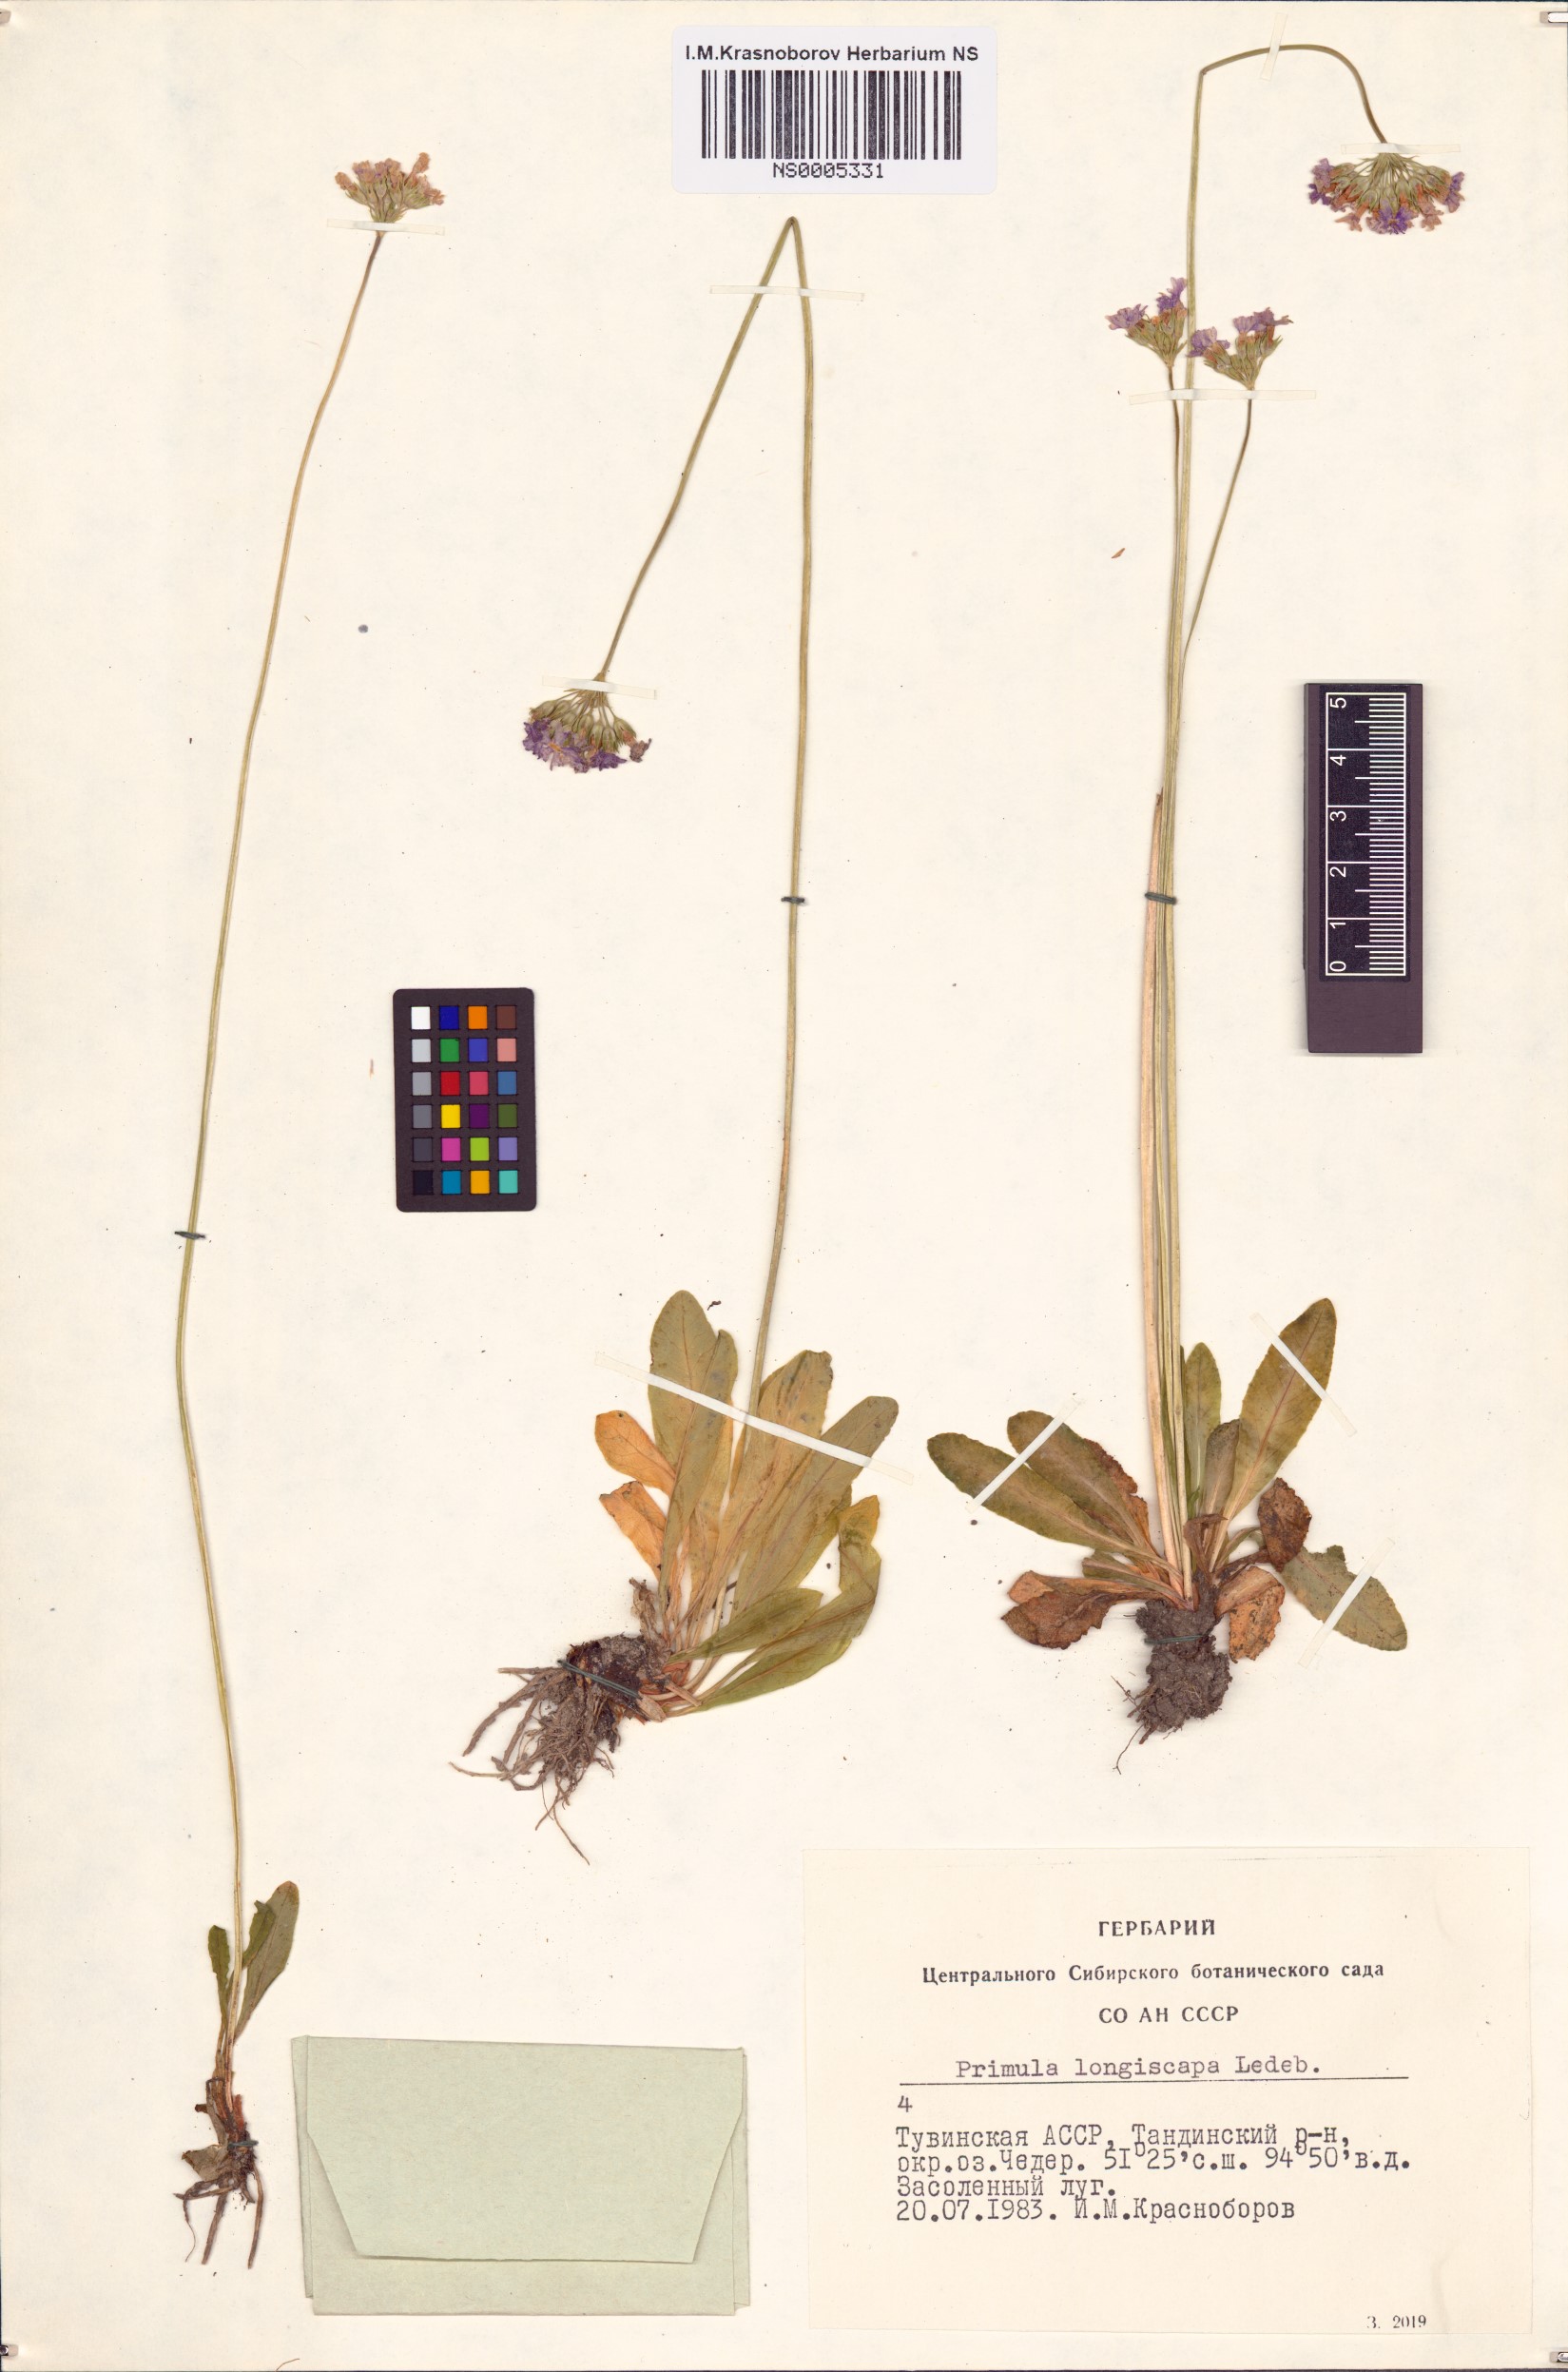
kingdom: Plantae
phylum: Tracheophyta
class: Magnoliopsida
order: Ericales
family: Primulaceae
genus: Primula
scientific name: Primula longiscapa
